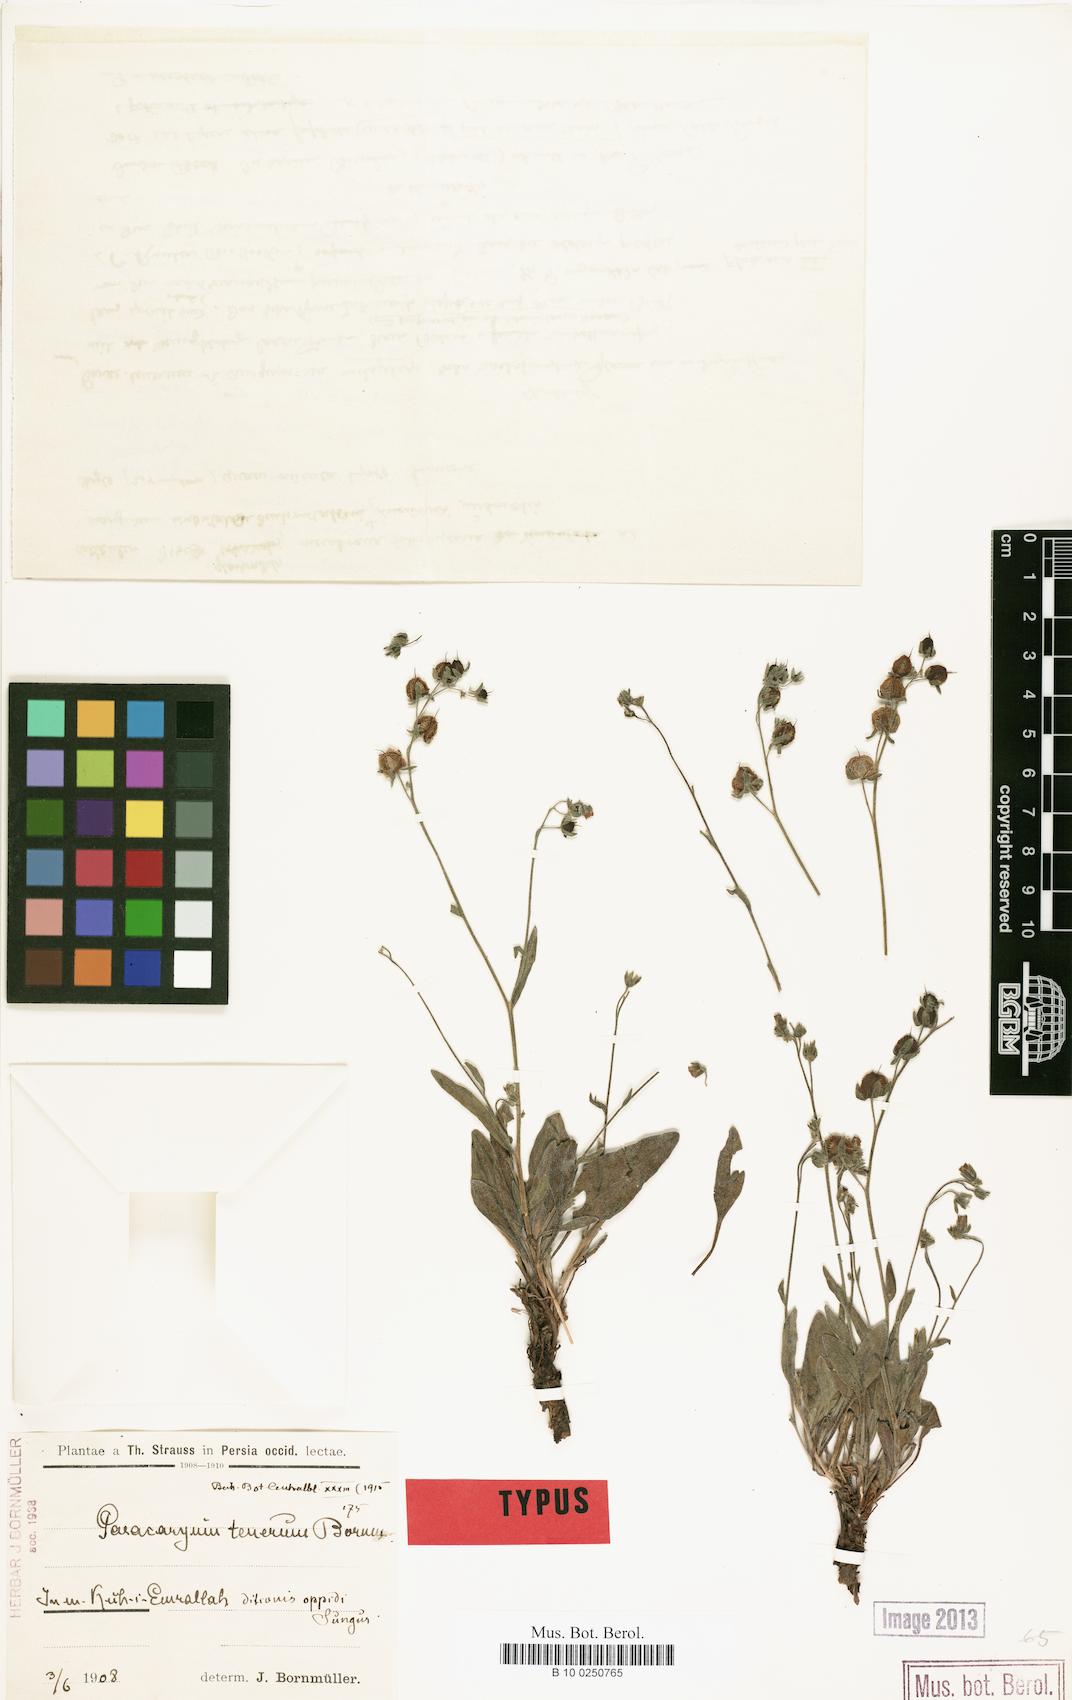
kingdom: Plantae
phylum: Tracheophyta
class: Magnoliopsida
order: Boraginales
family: Boraginaceae
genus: Paracaryum
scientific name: Paracaryum tenerum
